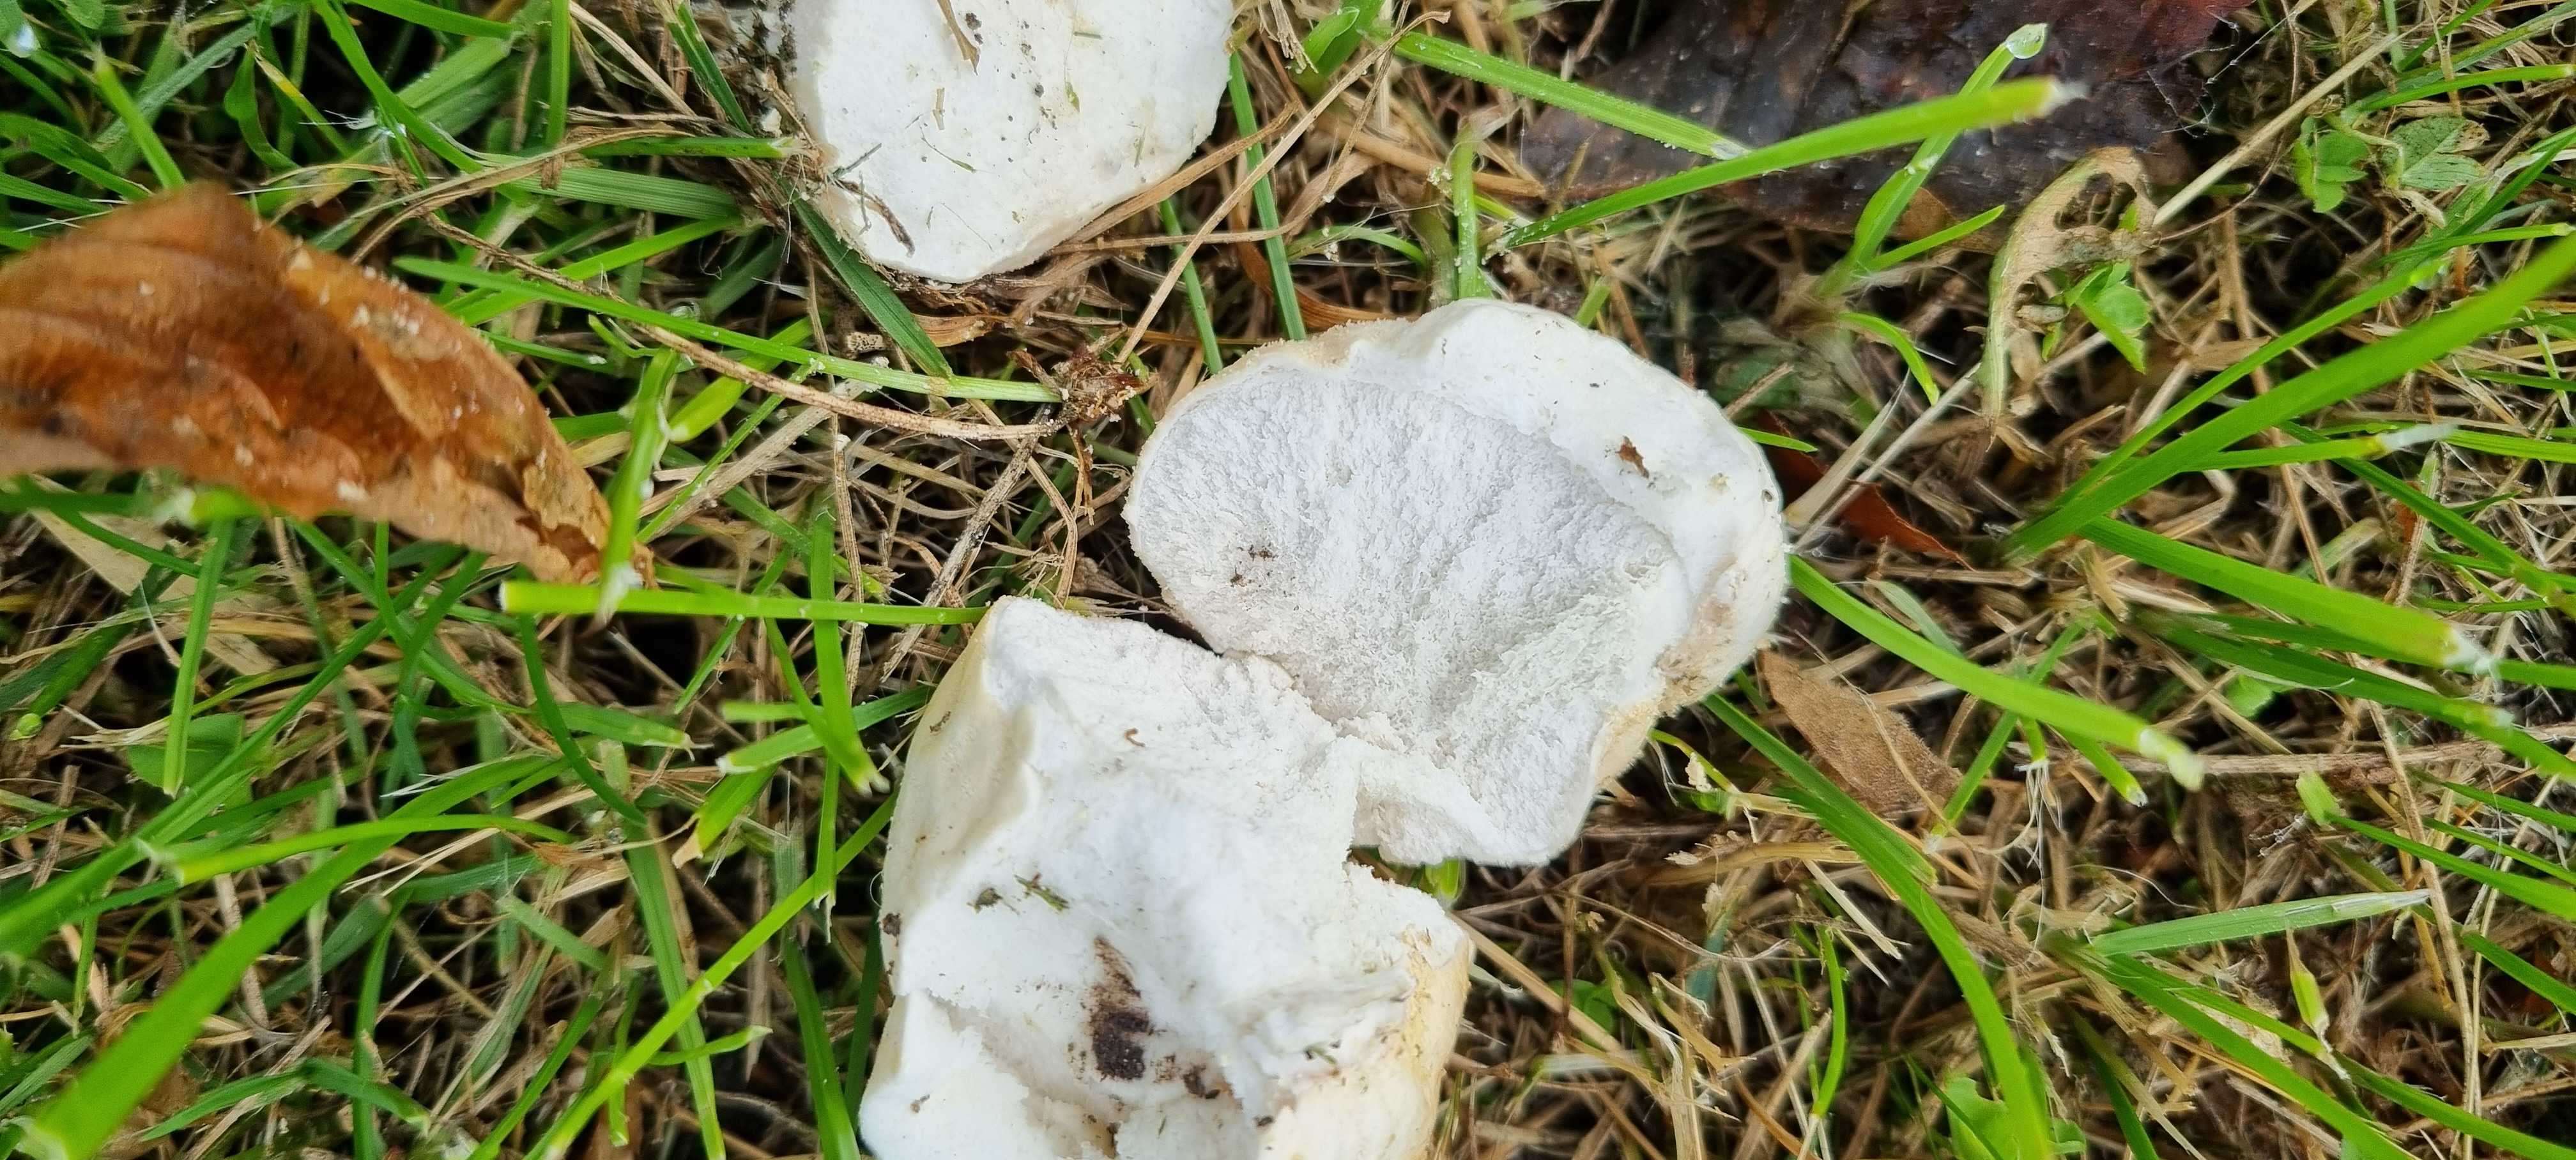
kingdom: Fungi
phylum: Basidiomycota
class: Agaricomycetes
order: Agaricales
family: Lycoperdaceae
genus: Lycoperdon
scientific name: Lycoperdon pratense
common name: flad støvbold
